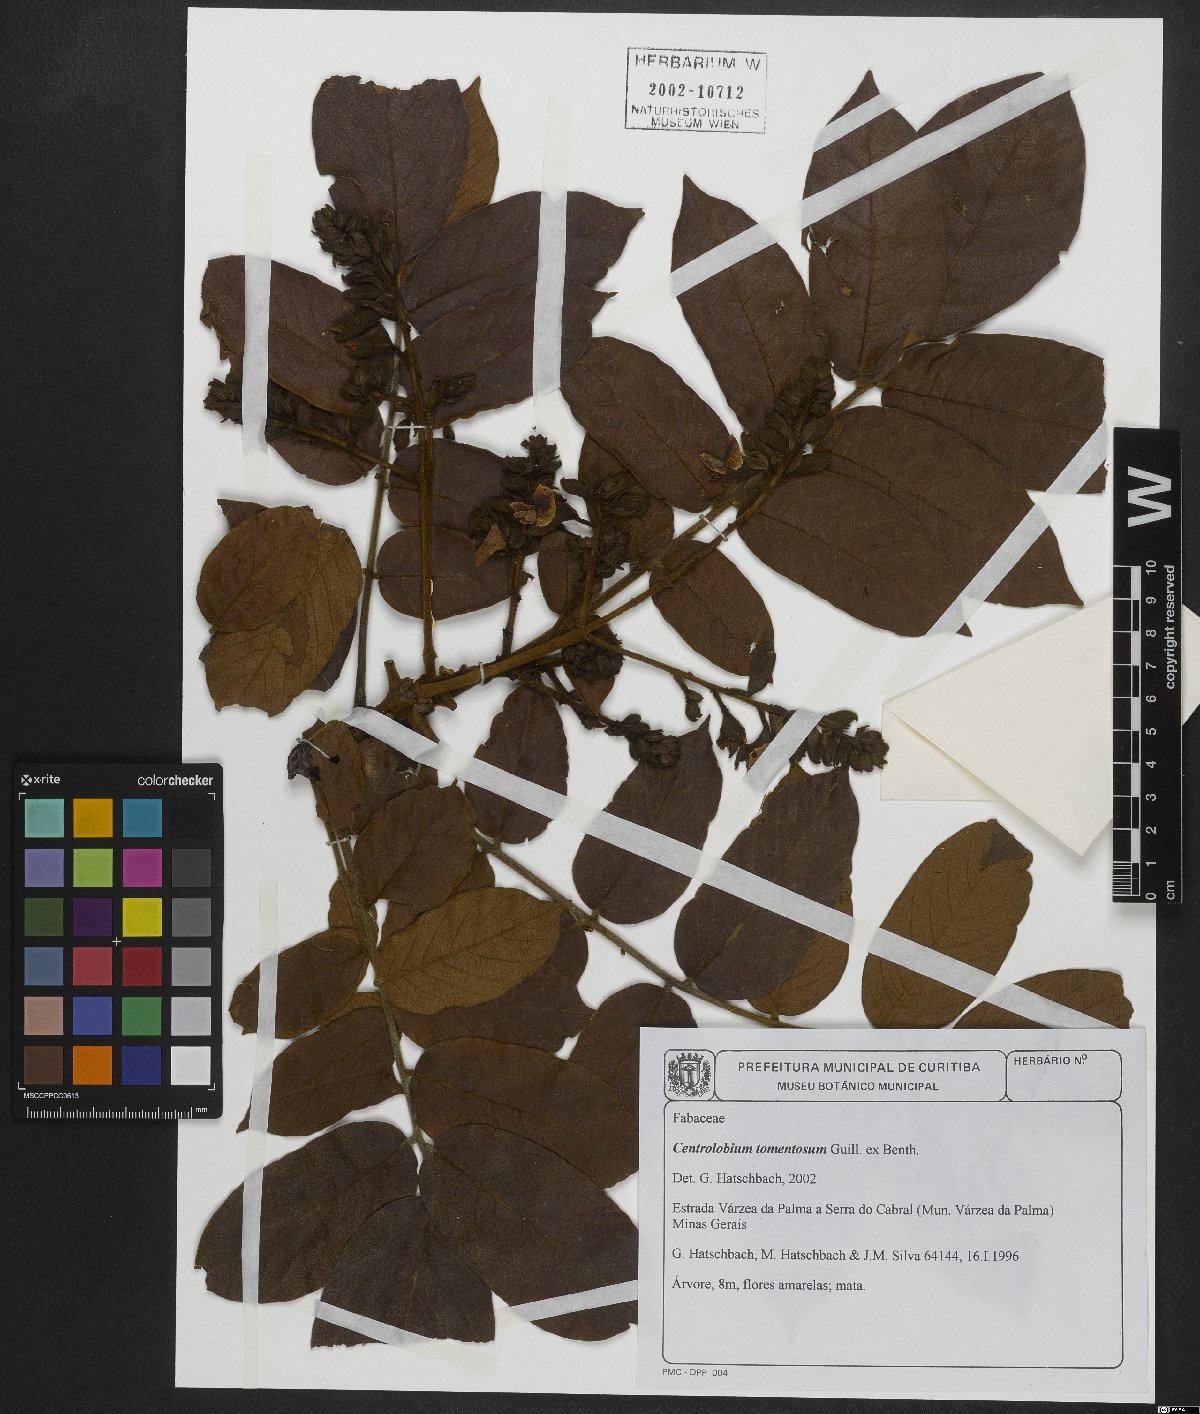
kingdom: Plantae
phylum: Tracheophyta
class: Magnoliopsida
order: Fabales
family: Fabaceae
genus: Centrolobium
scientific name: Centrolobium tomentosum
